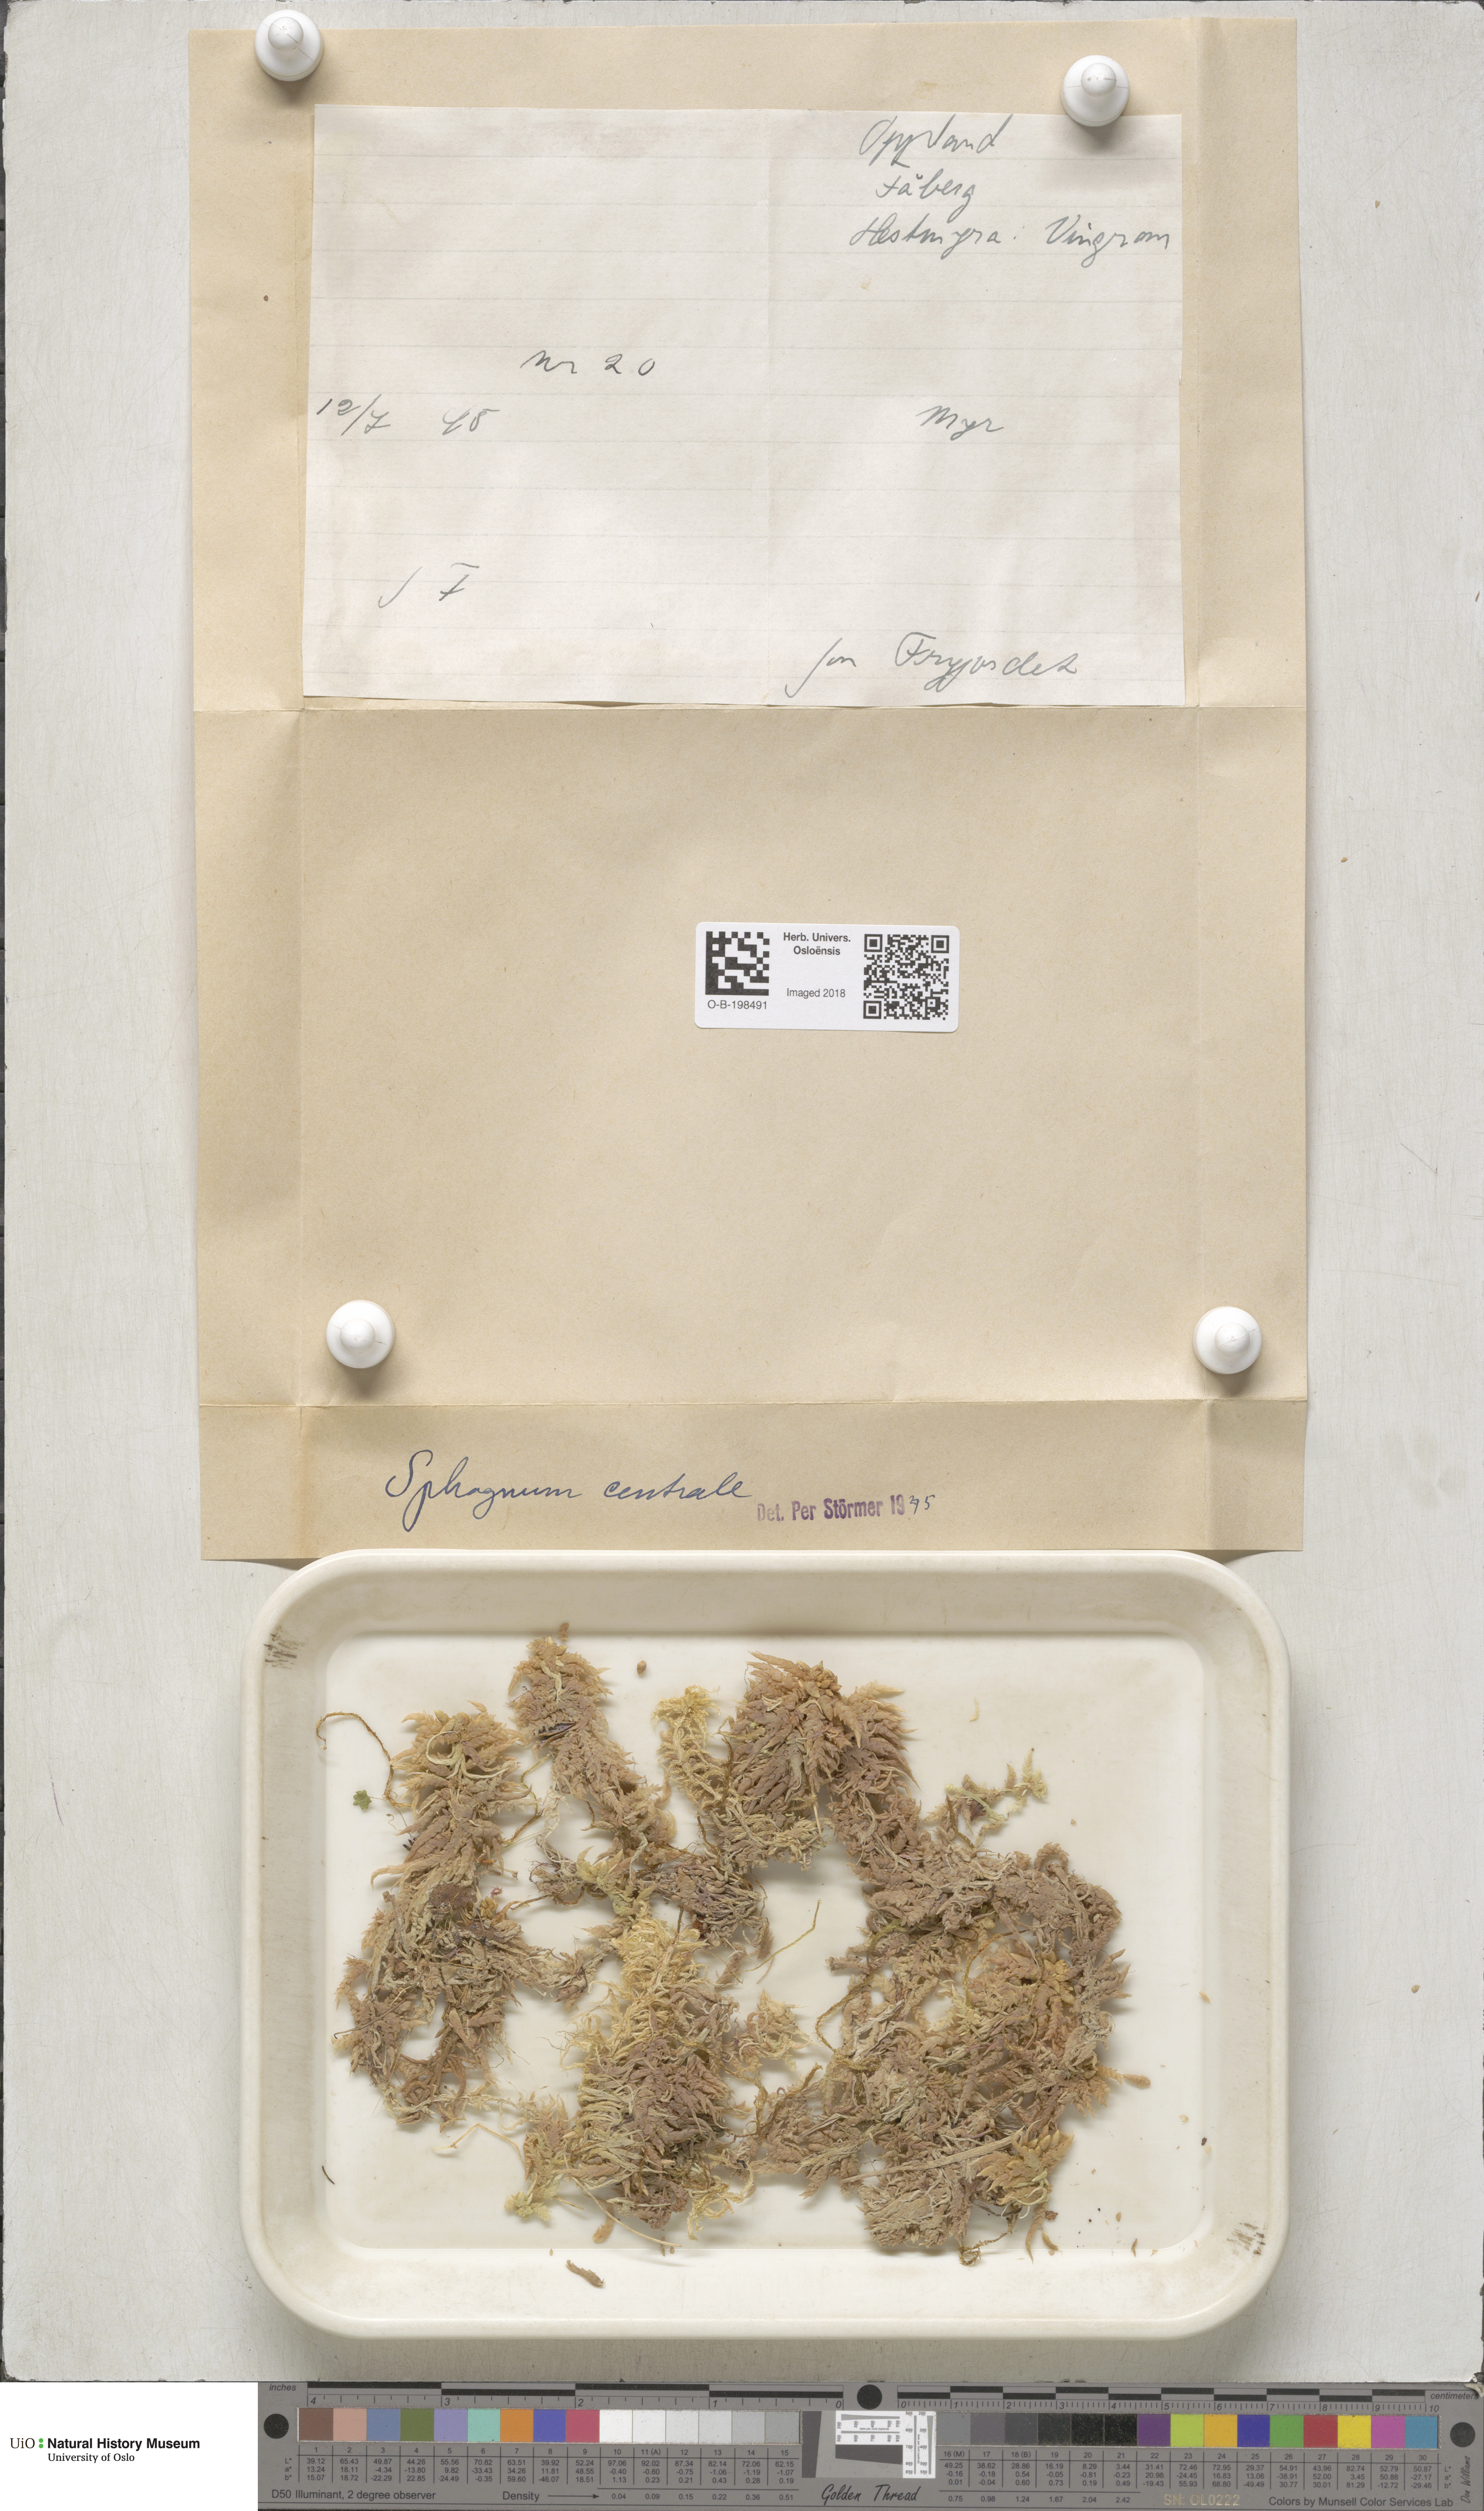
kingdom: Plantae
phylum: Bryophyta
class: Sphagnopsida
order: Sphagnales
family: Sphagnaceae
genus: Sphagnum
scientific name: Sphagnum centrale
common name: Central peat moss
